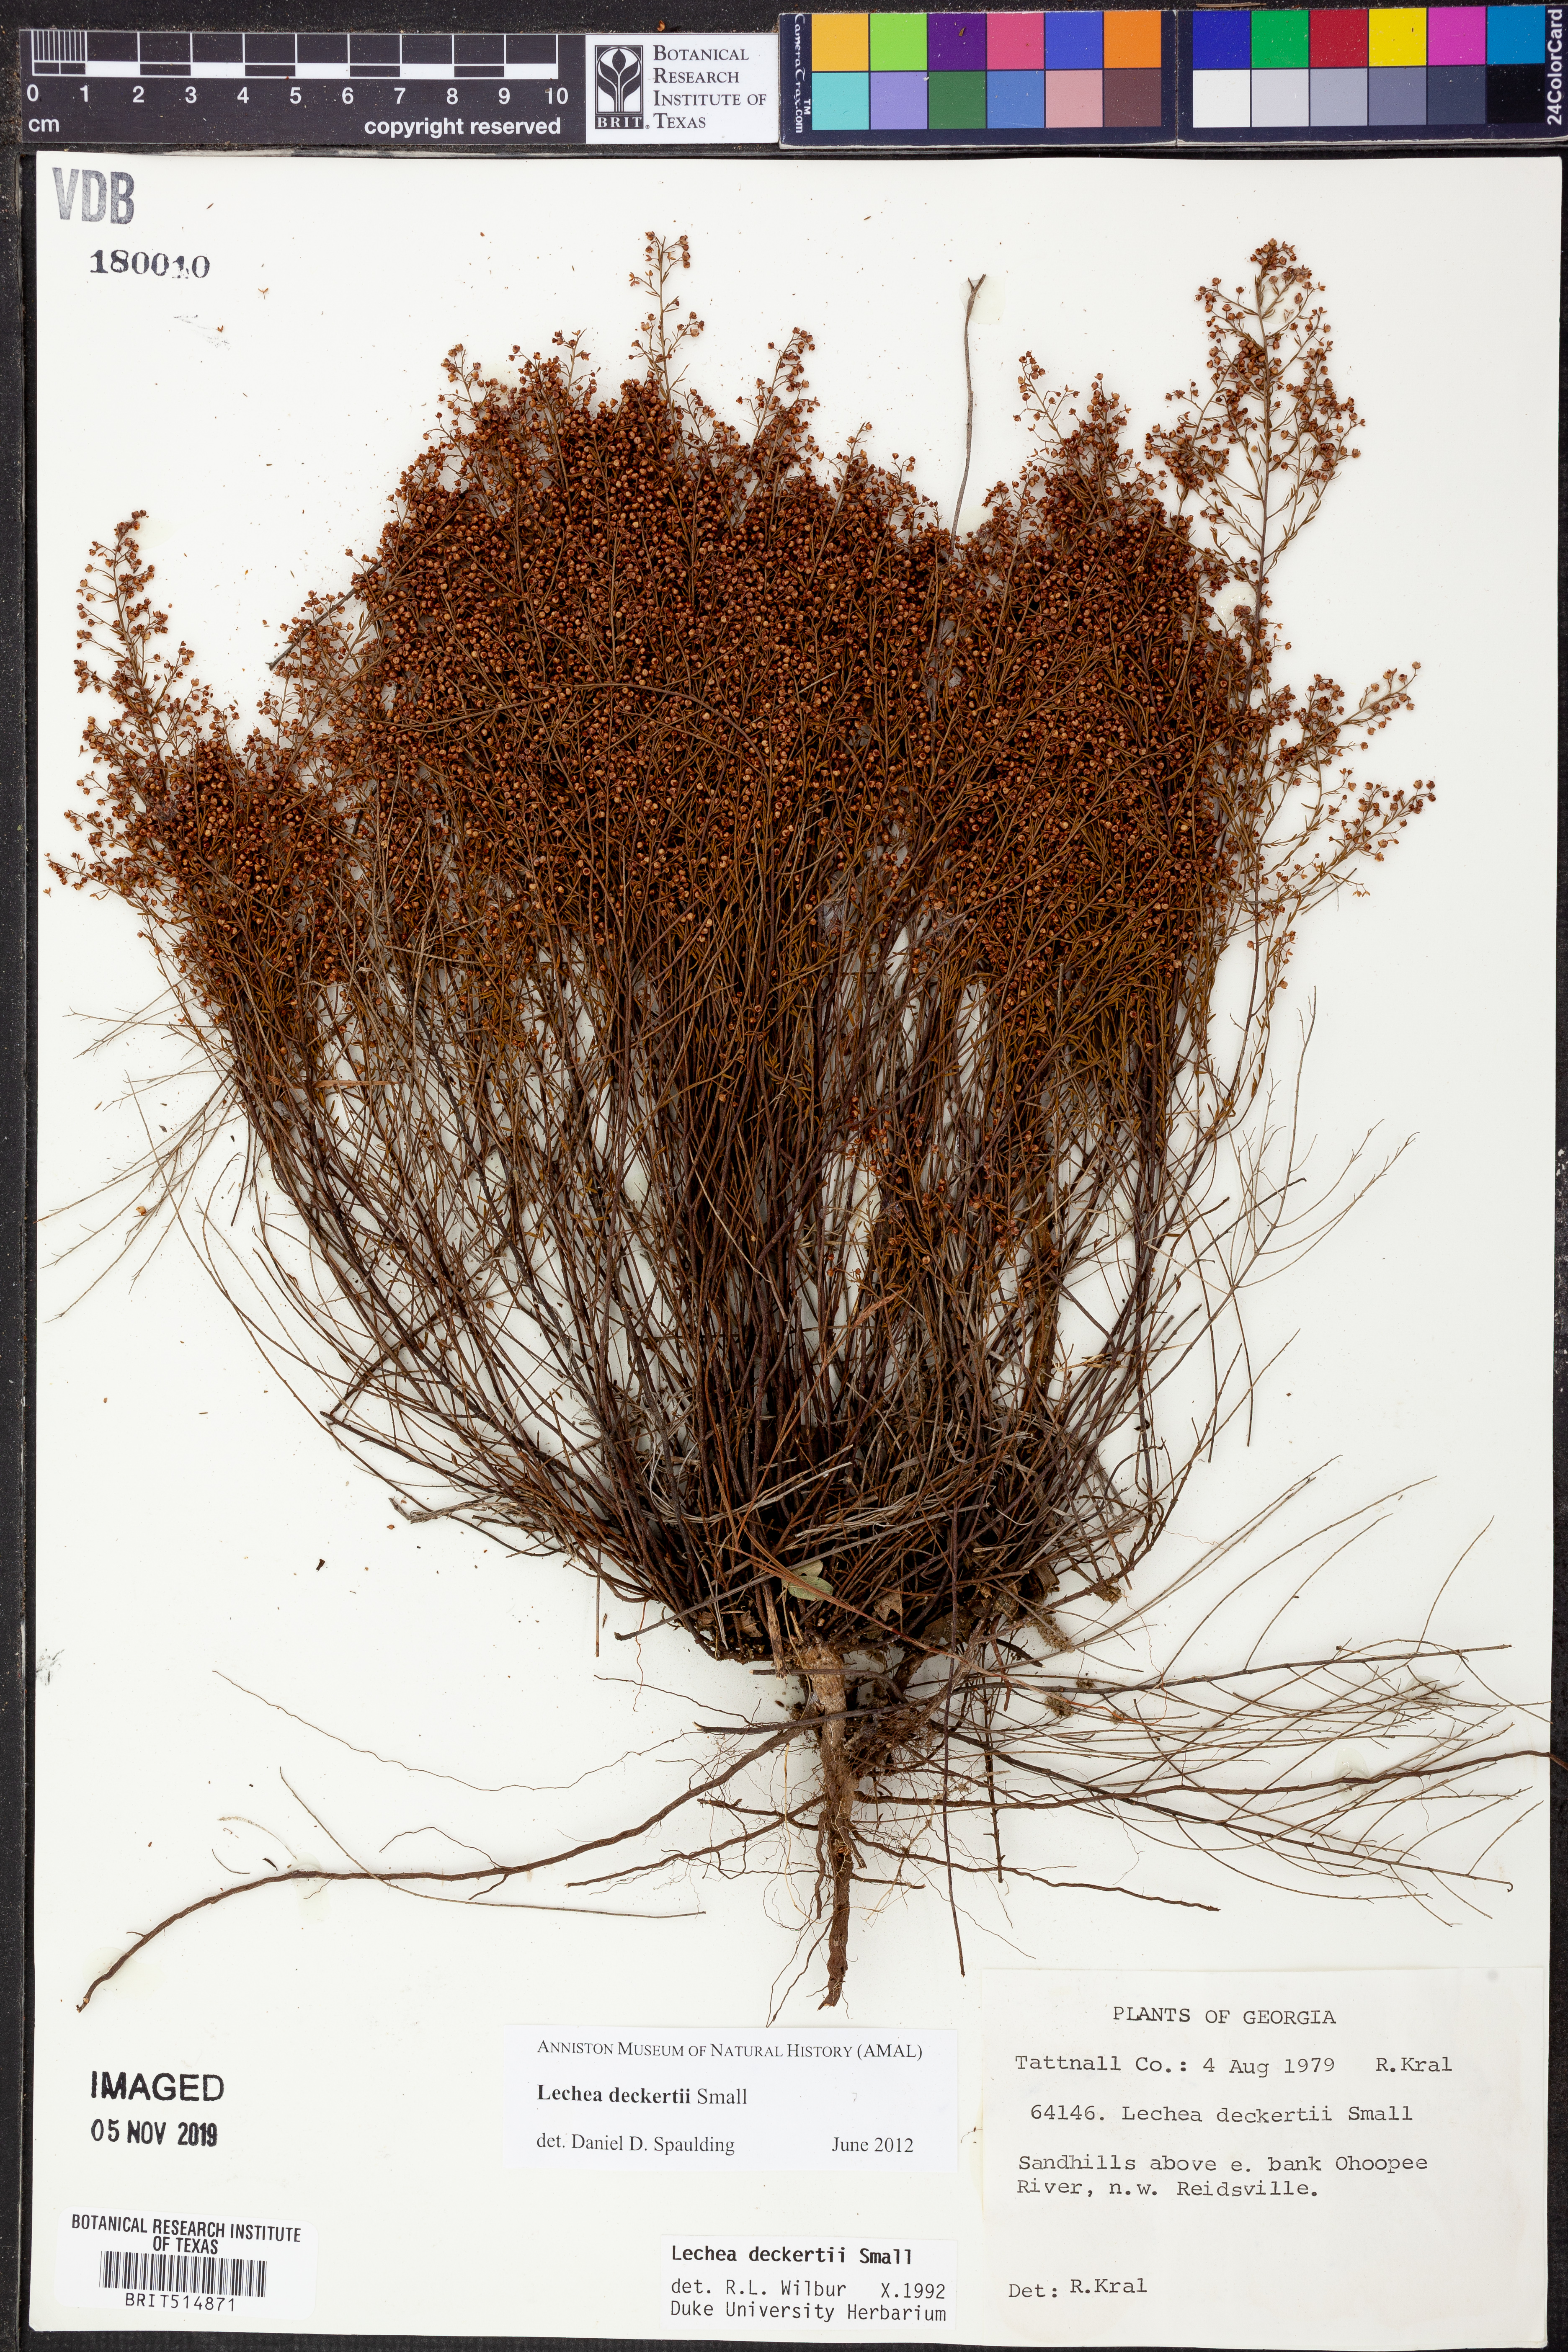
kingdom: Plantae
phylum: Tracheophyta
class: Magnoliopsida
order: Malvales
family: Cistaceae
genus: Lechea
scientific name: Lechea deckertii
